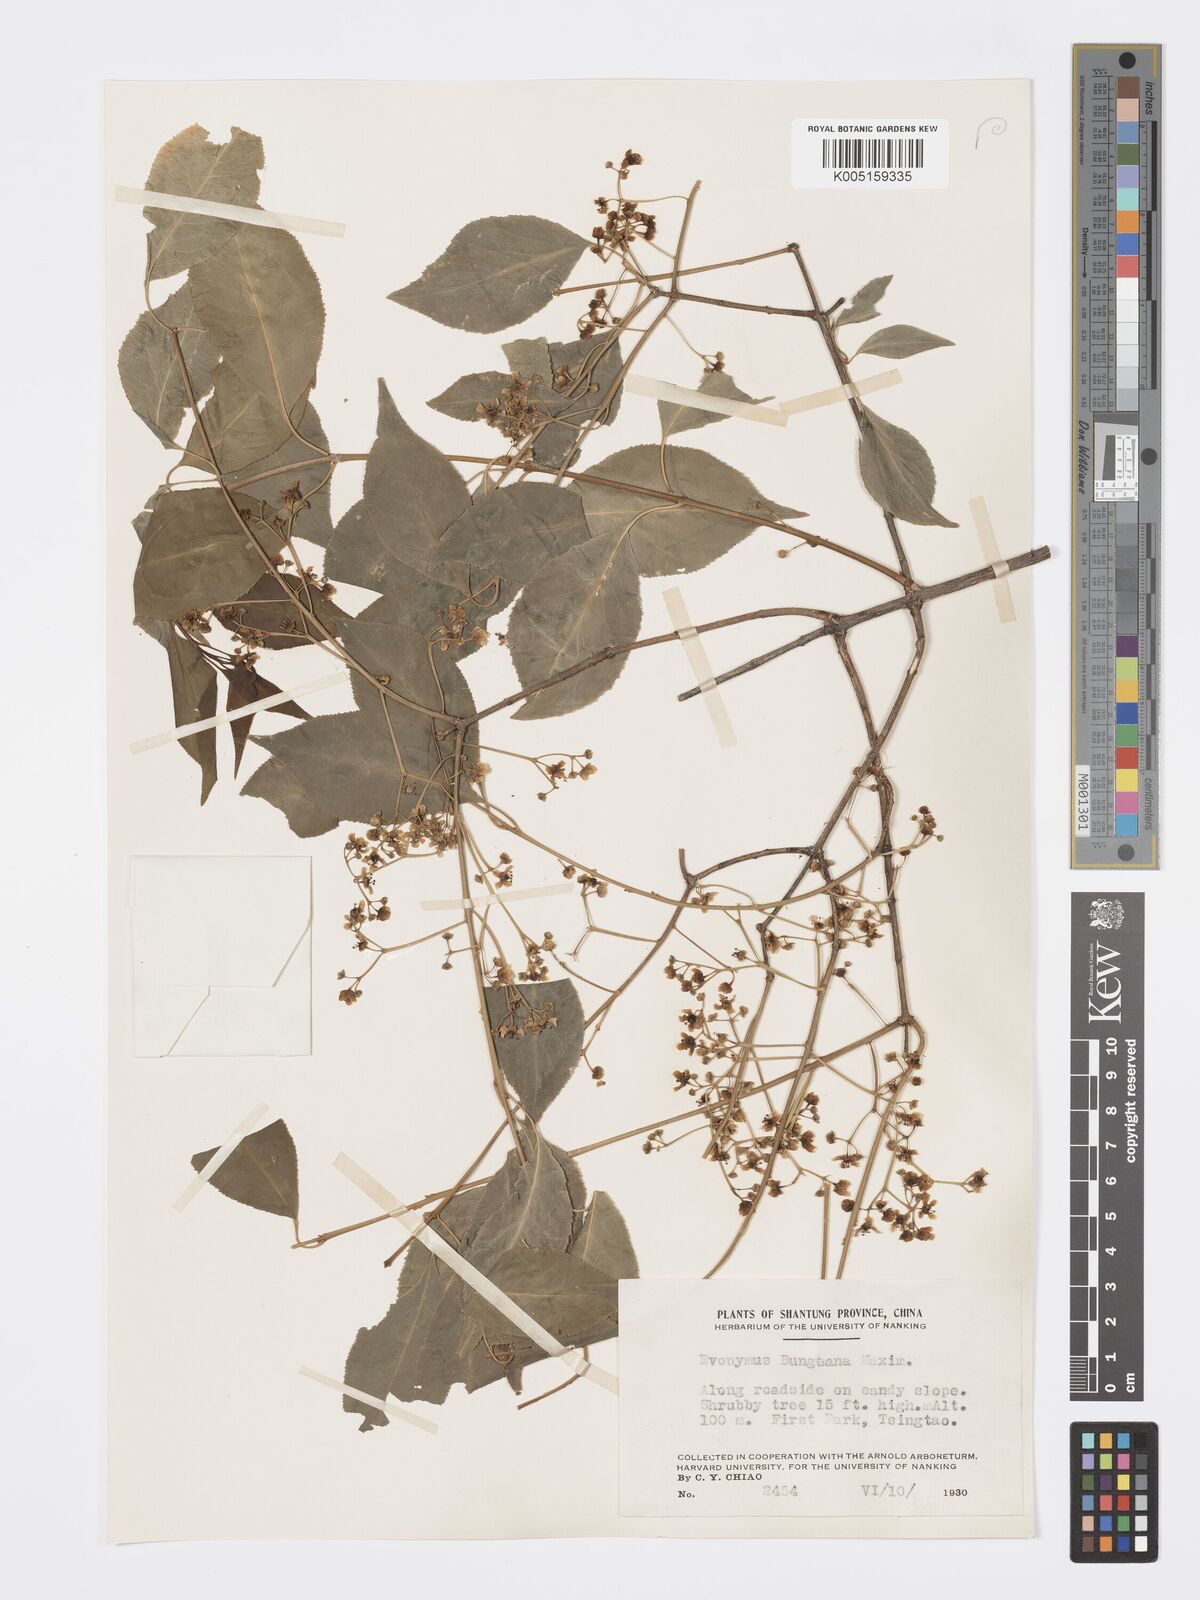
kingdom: Plantae
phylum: Tracheophyta
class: Magnoliopsida
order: Celastrales
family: Celastraceae
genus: Euonymus
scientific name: Euonymus maackii
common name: Hamilton's spindletree
